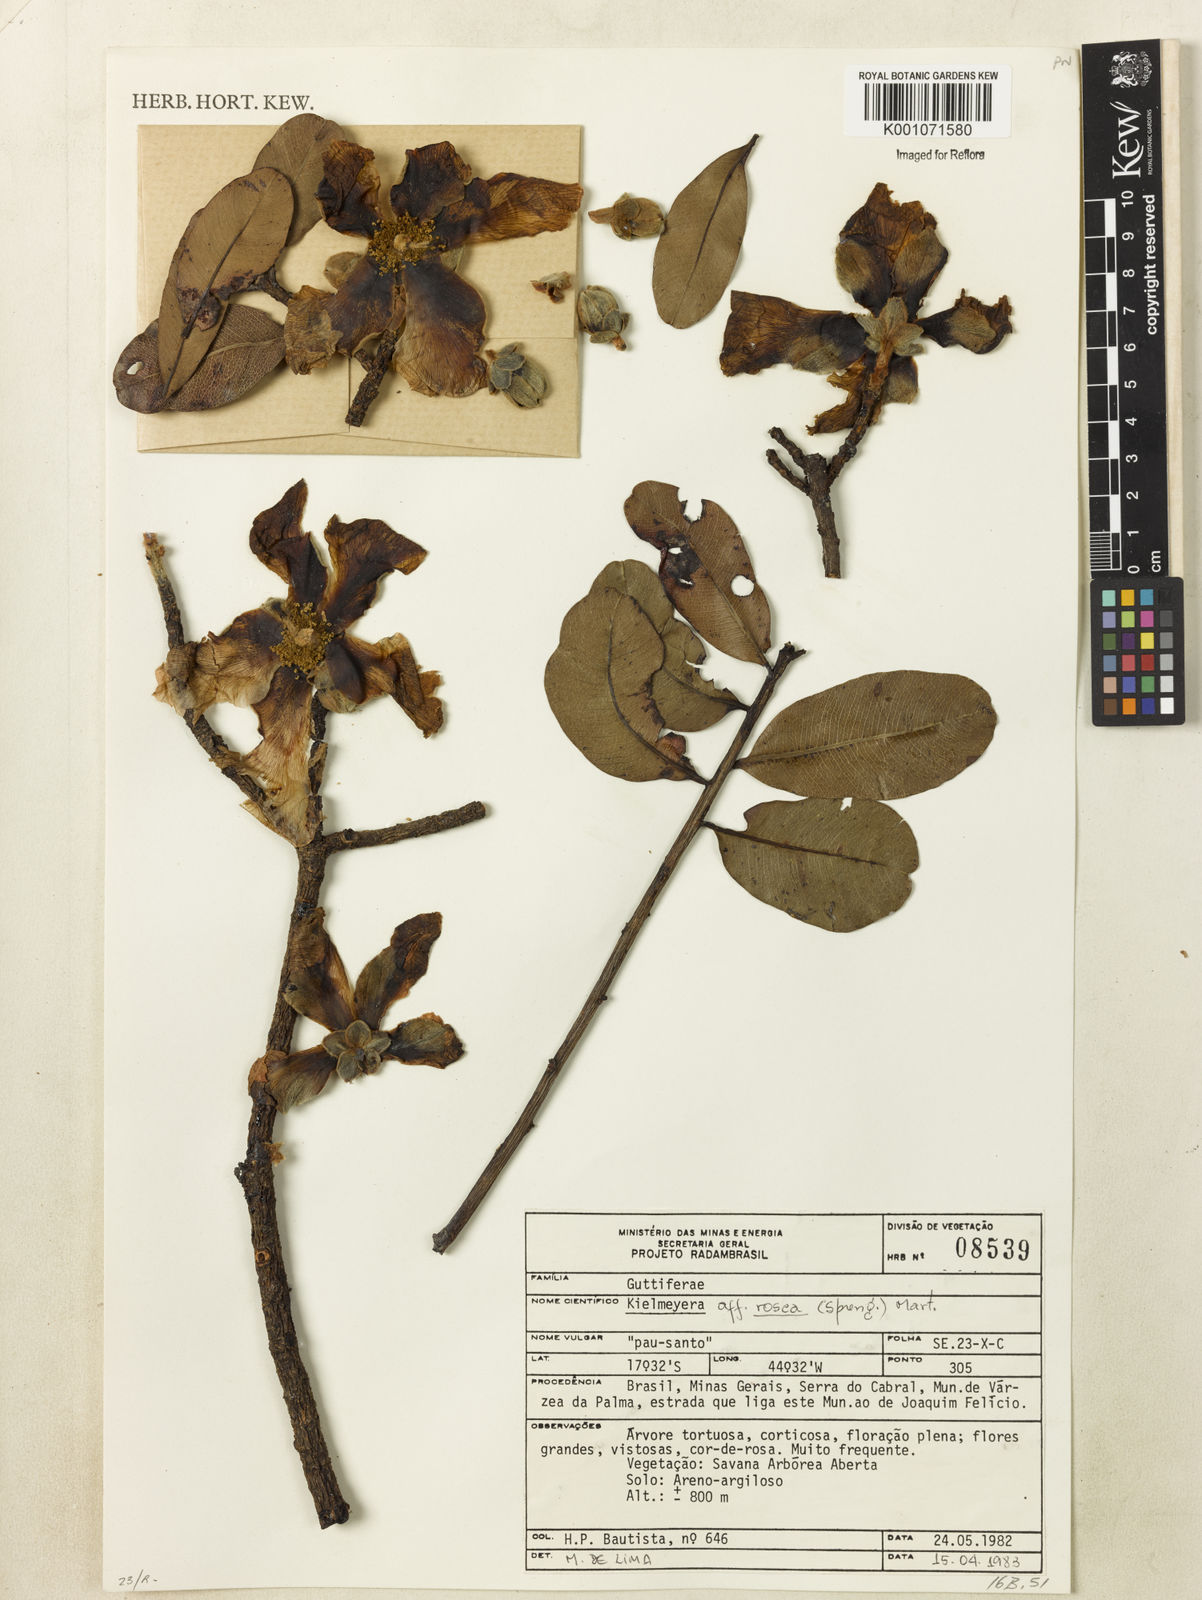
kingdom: Plantae
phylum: Tracheophyta
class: Magnoliopsida
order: Malpighiales
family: Calophyllaceae
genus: Kielmeyera
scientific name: Kielmeyera rosea
